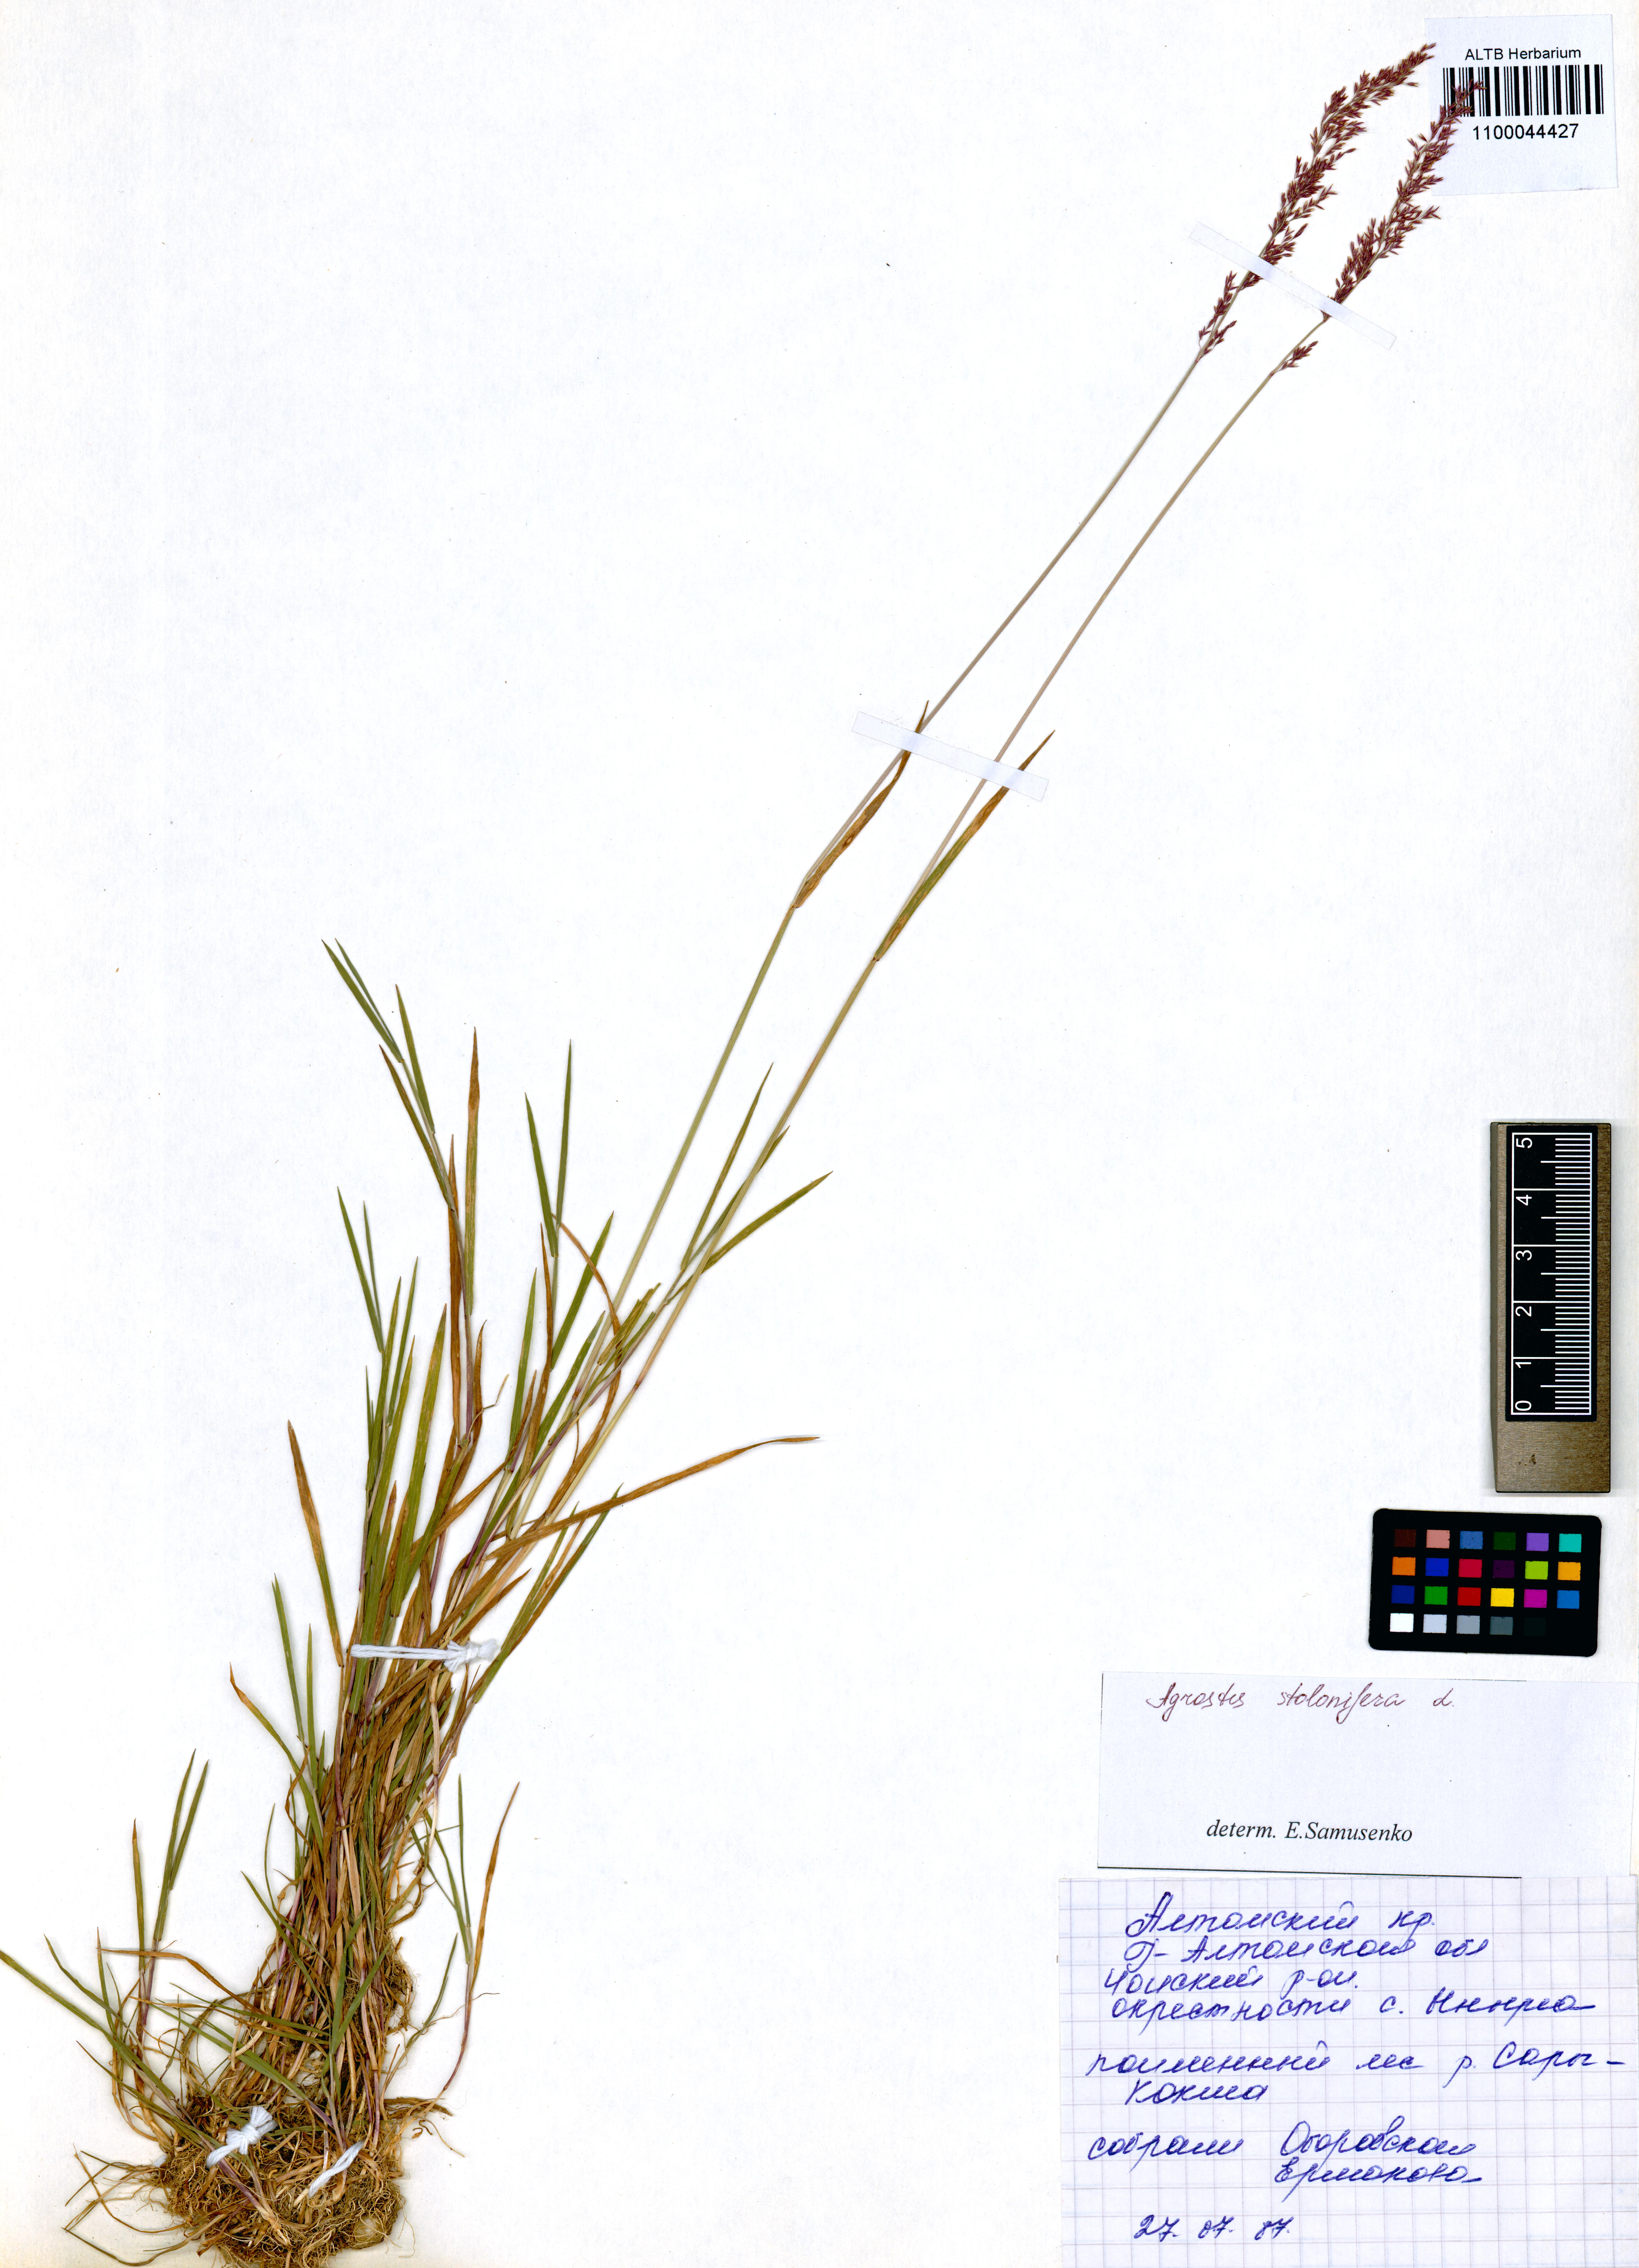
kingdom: Plantae
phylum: Tracheophyta
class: Liliopsida
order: Poales
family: Poaceae
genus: Agrostis
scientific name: Agrostis stolonifera
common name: Creeping bentgrass
